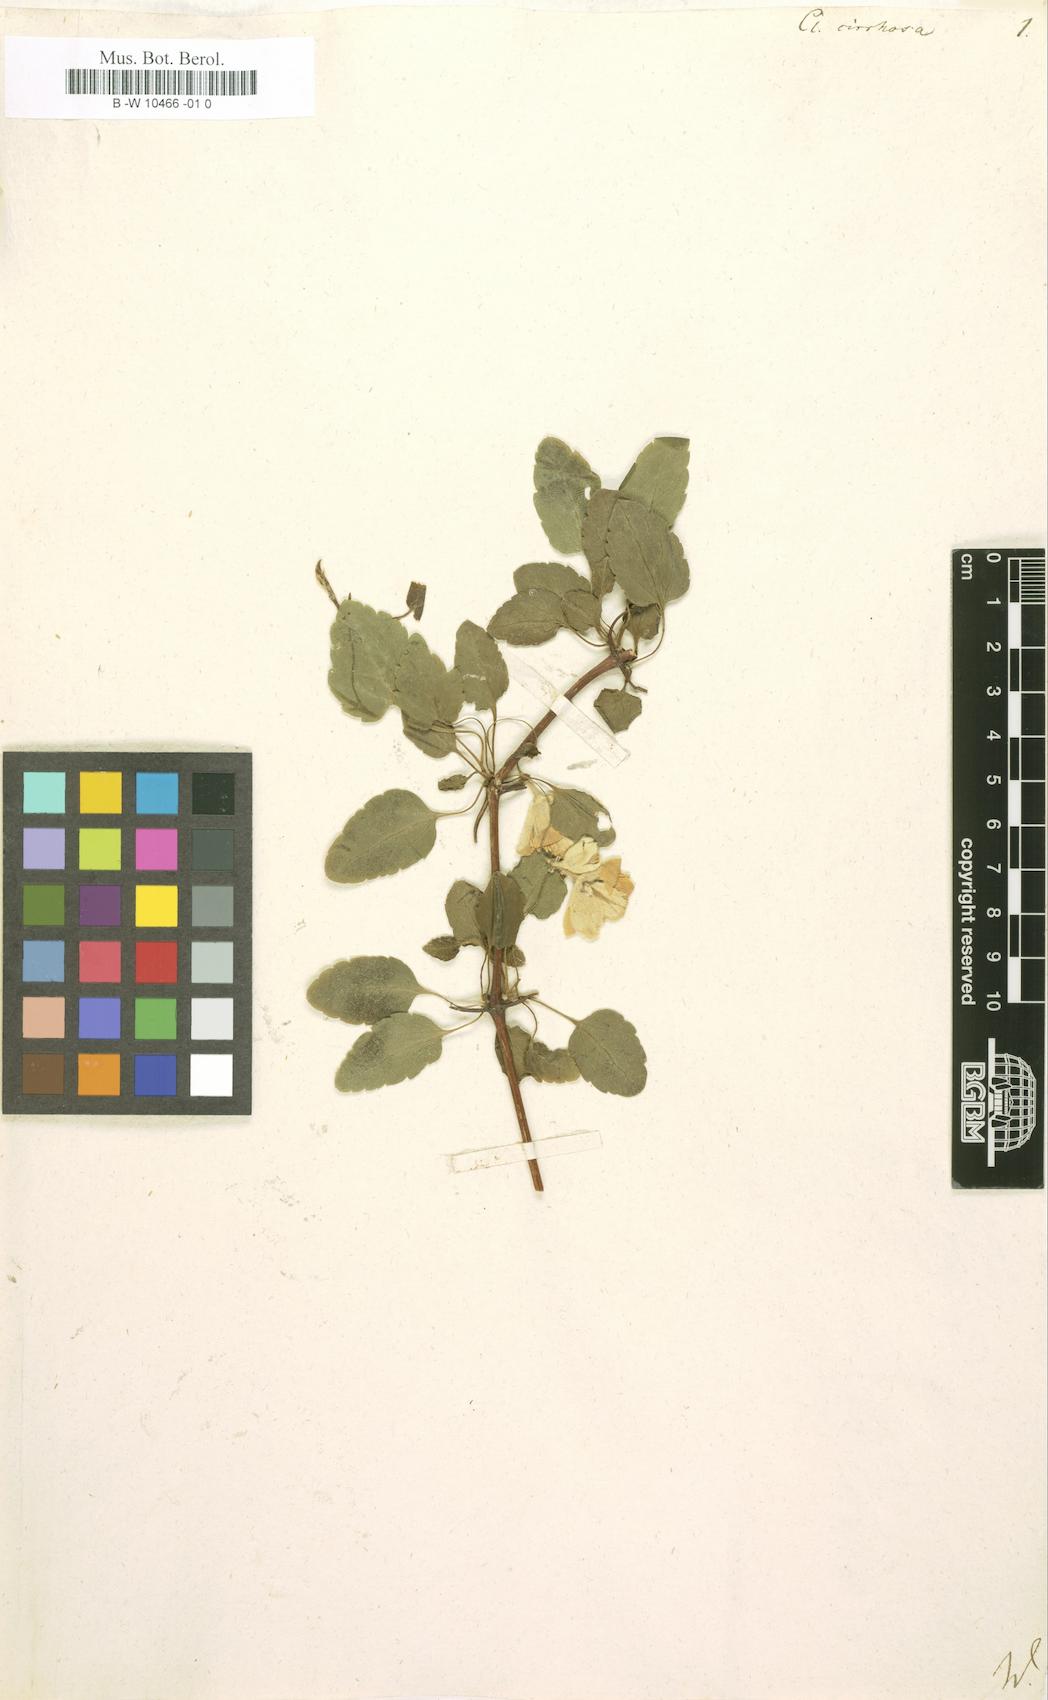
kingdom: Plantae
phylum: Tracheophyta
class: Magnoliopsida
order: Ranunculales
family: Ranunculaceae
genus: Clematis
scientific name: Clematis cirrhosa
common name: Early virgin's-bower
